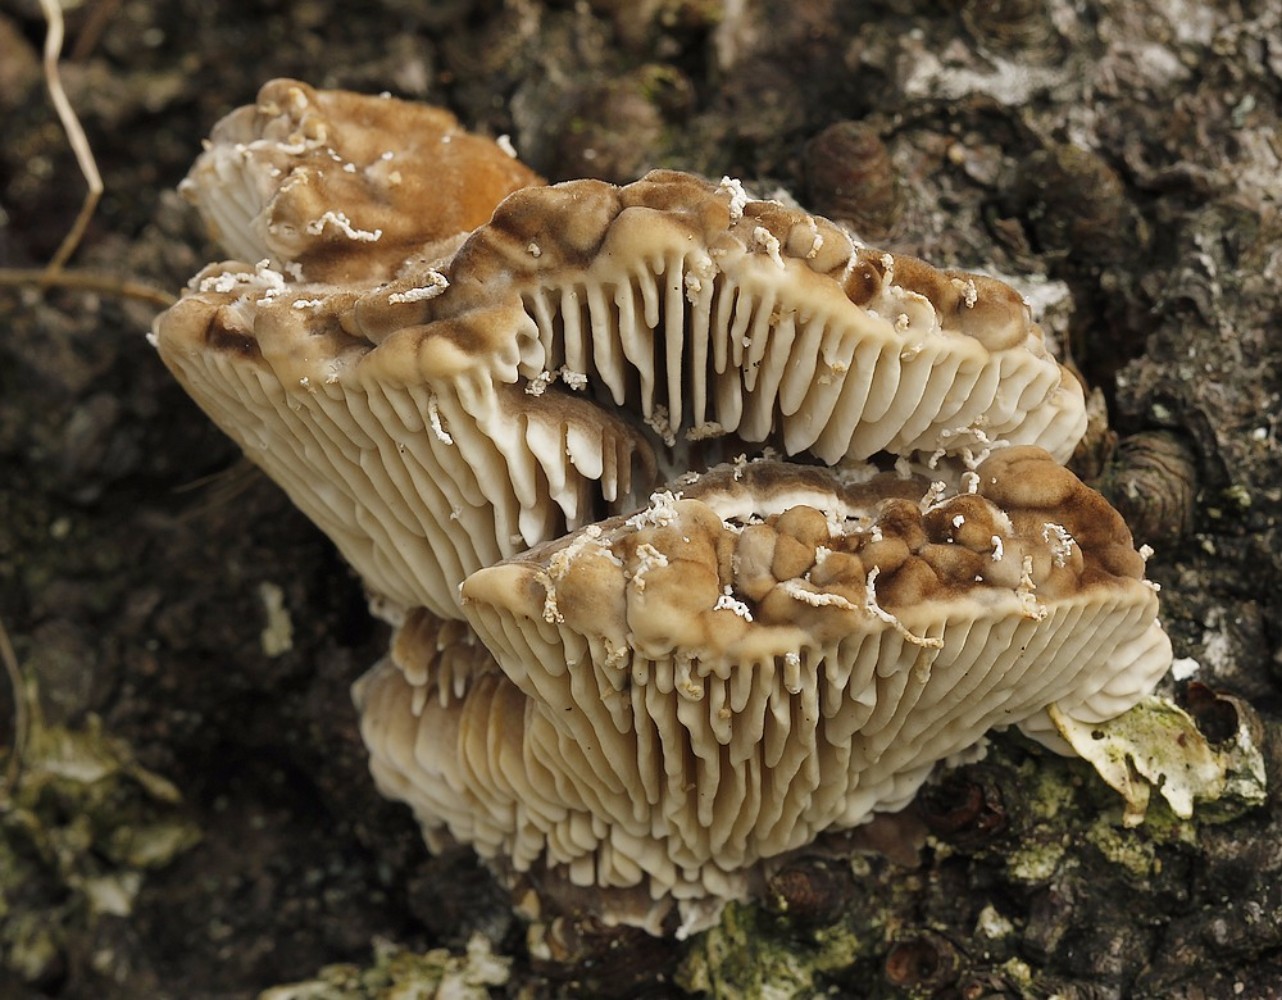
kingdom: Fungi
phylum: Basidiomycota
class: Agaricomycetes
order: Polyporales
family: Polyporaceae
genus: Lenzites
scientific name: Lenzites betulinus
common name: birke-læderporesvamp
